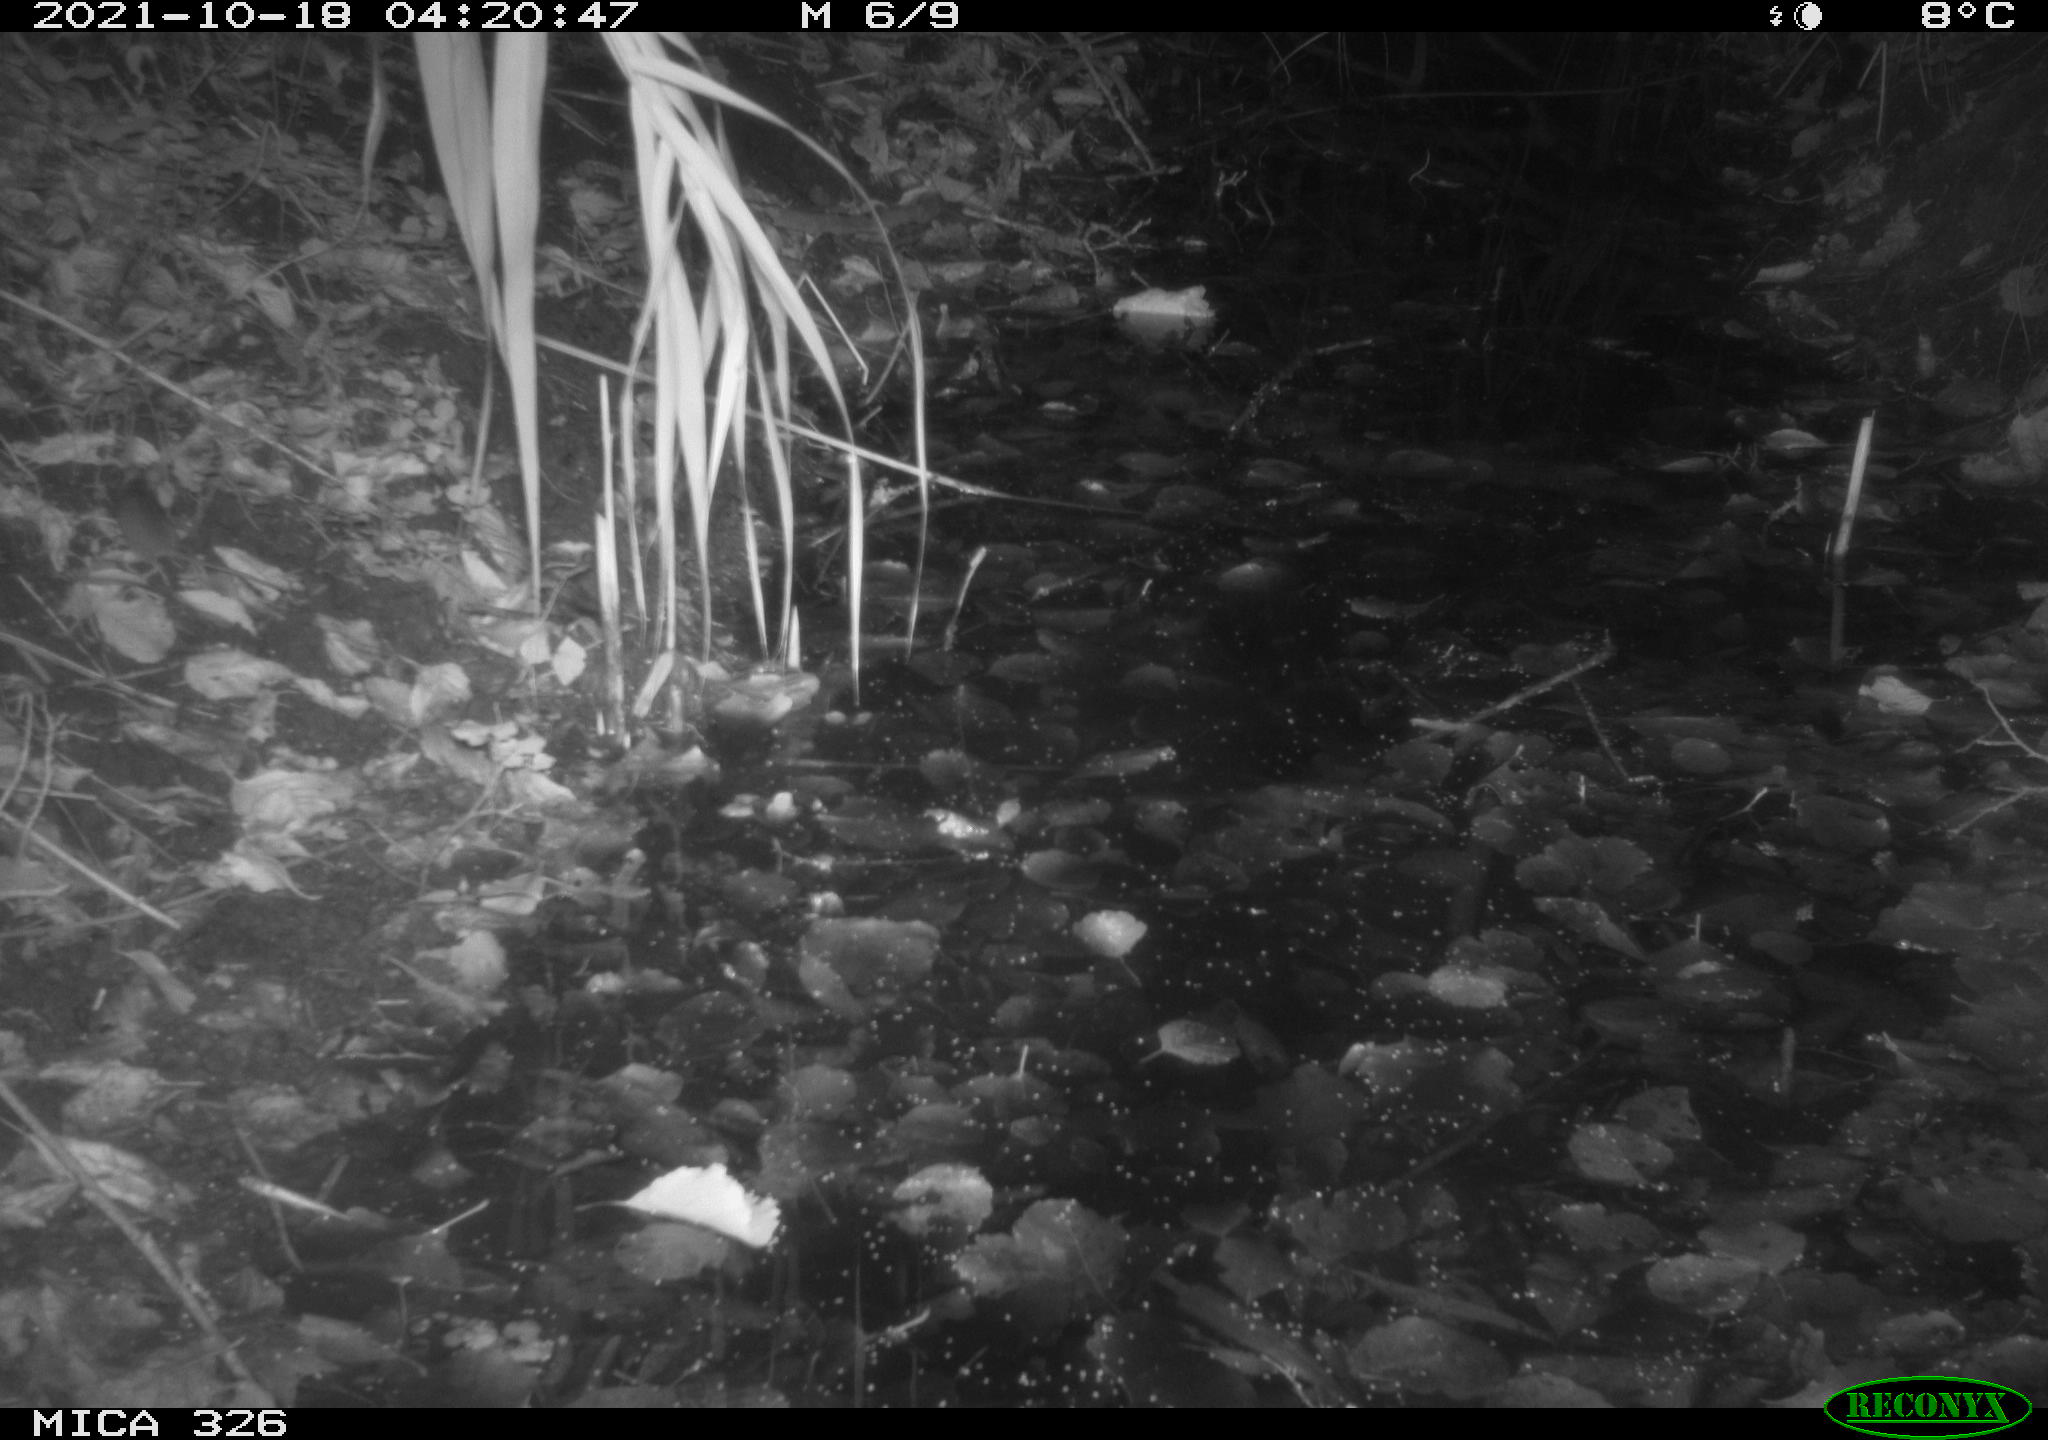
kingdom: Animalia
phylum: Chordata
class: Mammalia
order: Rodentia
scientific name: Rodentia
